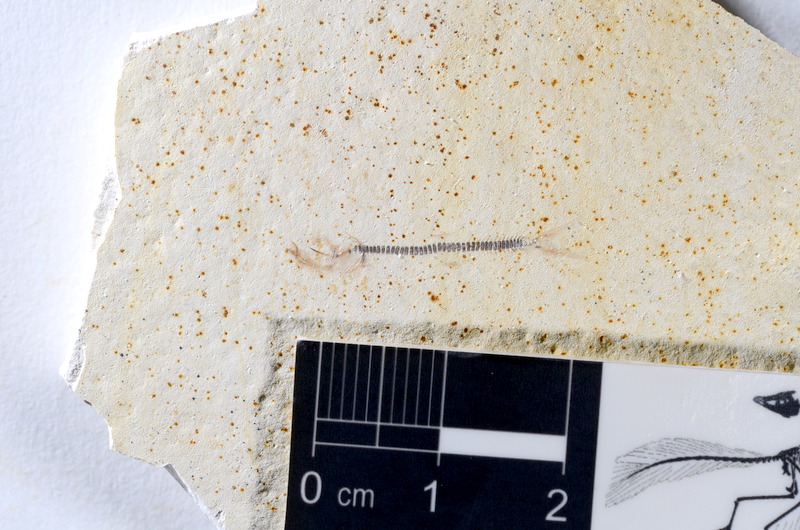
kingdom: Animalia
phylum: Chordata
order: Salmoniformes
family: Orthogonikleithridae
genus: Orthogonikleithrus
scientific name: Orthogonikleithrus hoelli
